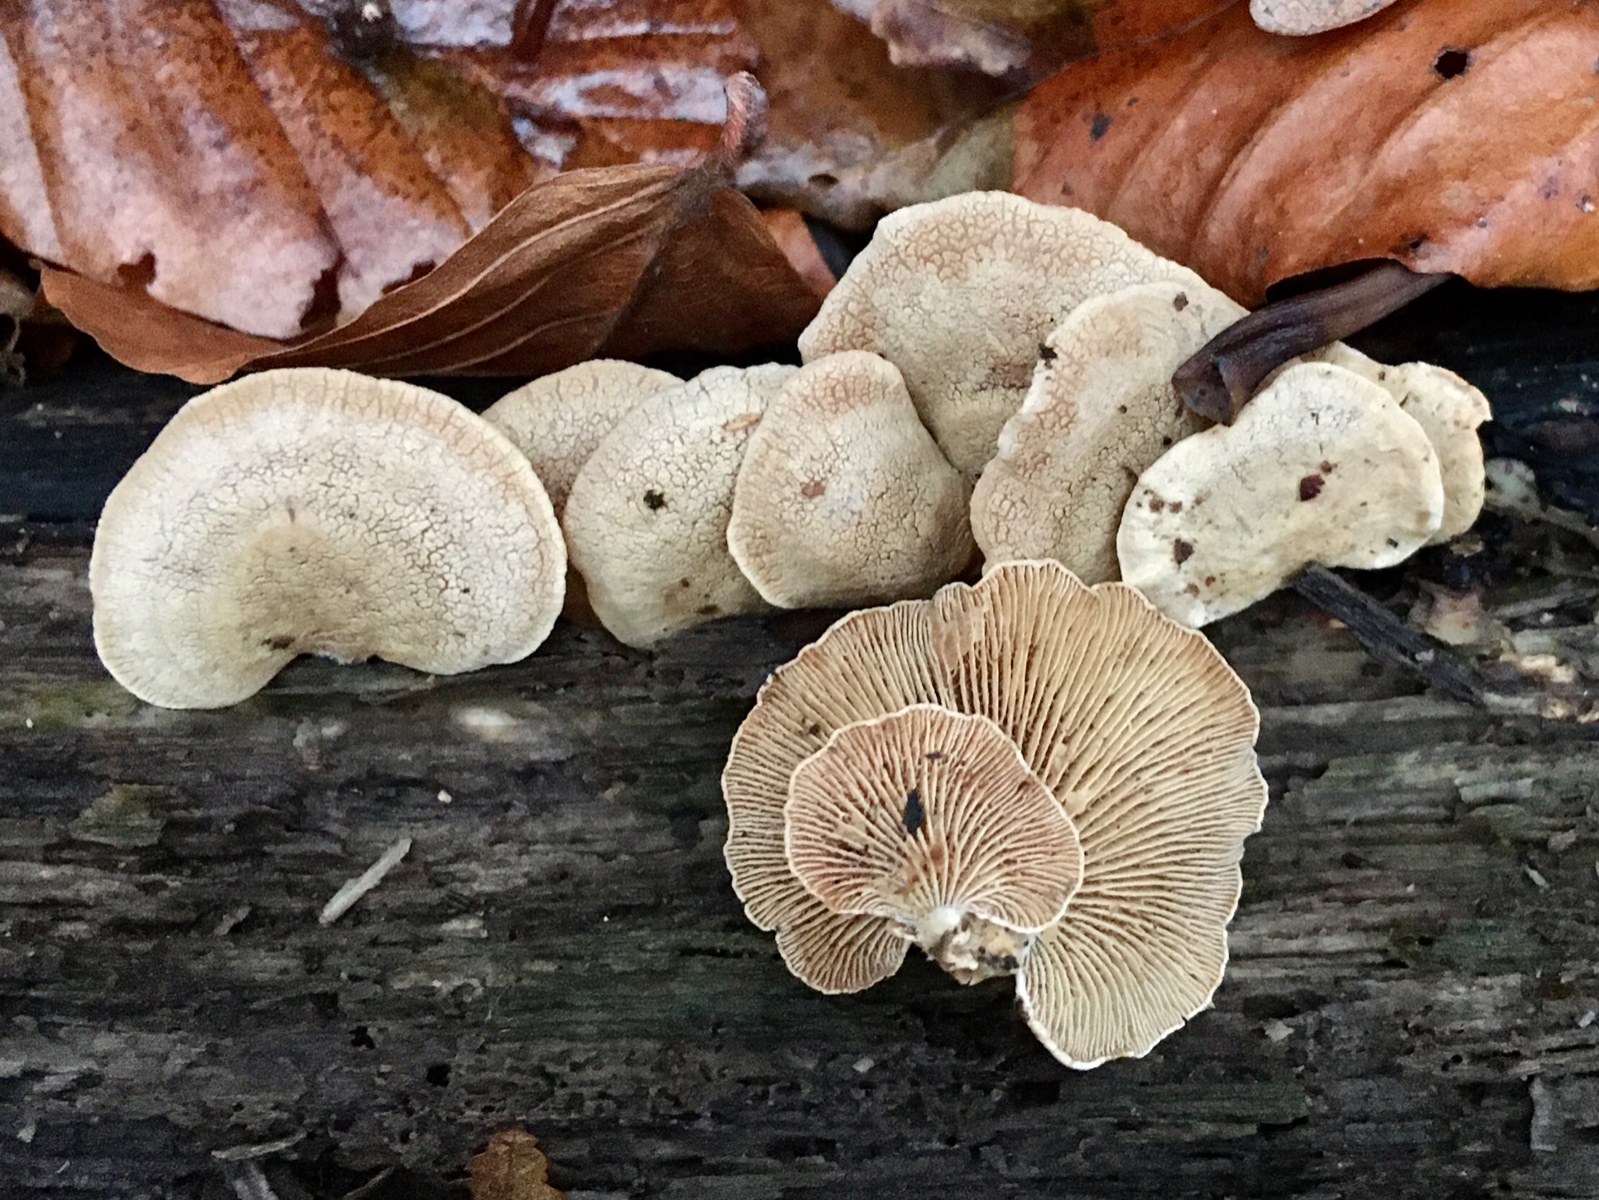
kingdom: Fungi
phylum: Basidiomycota
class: Agaricomycetes
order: Agaricales
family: Mycenaceae
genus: Panellus
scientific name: Panellus stipticus
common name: kliddet epaulethat
